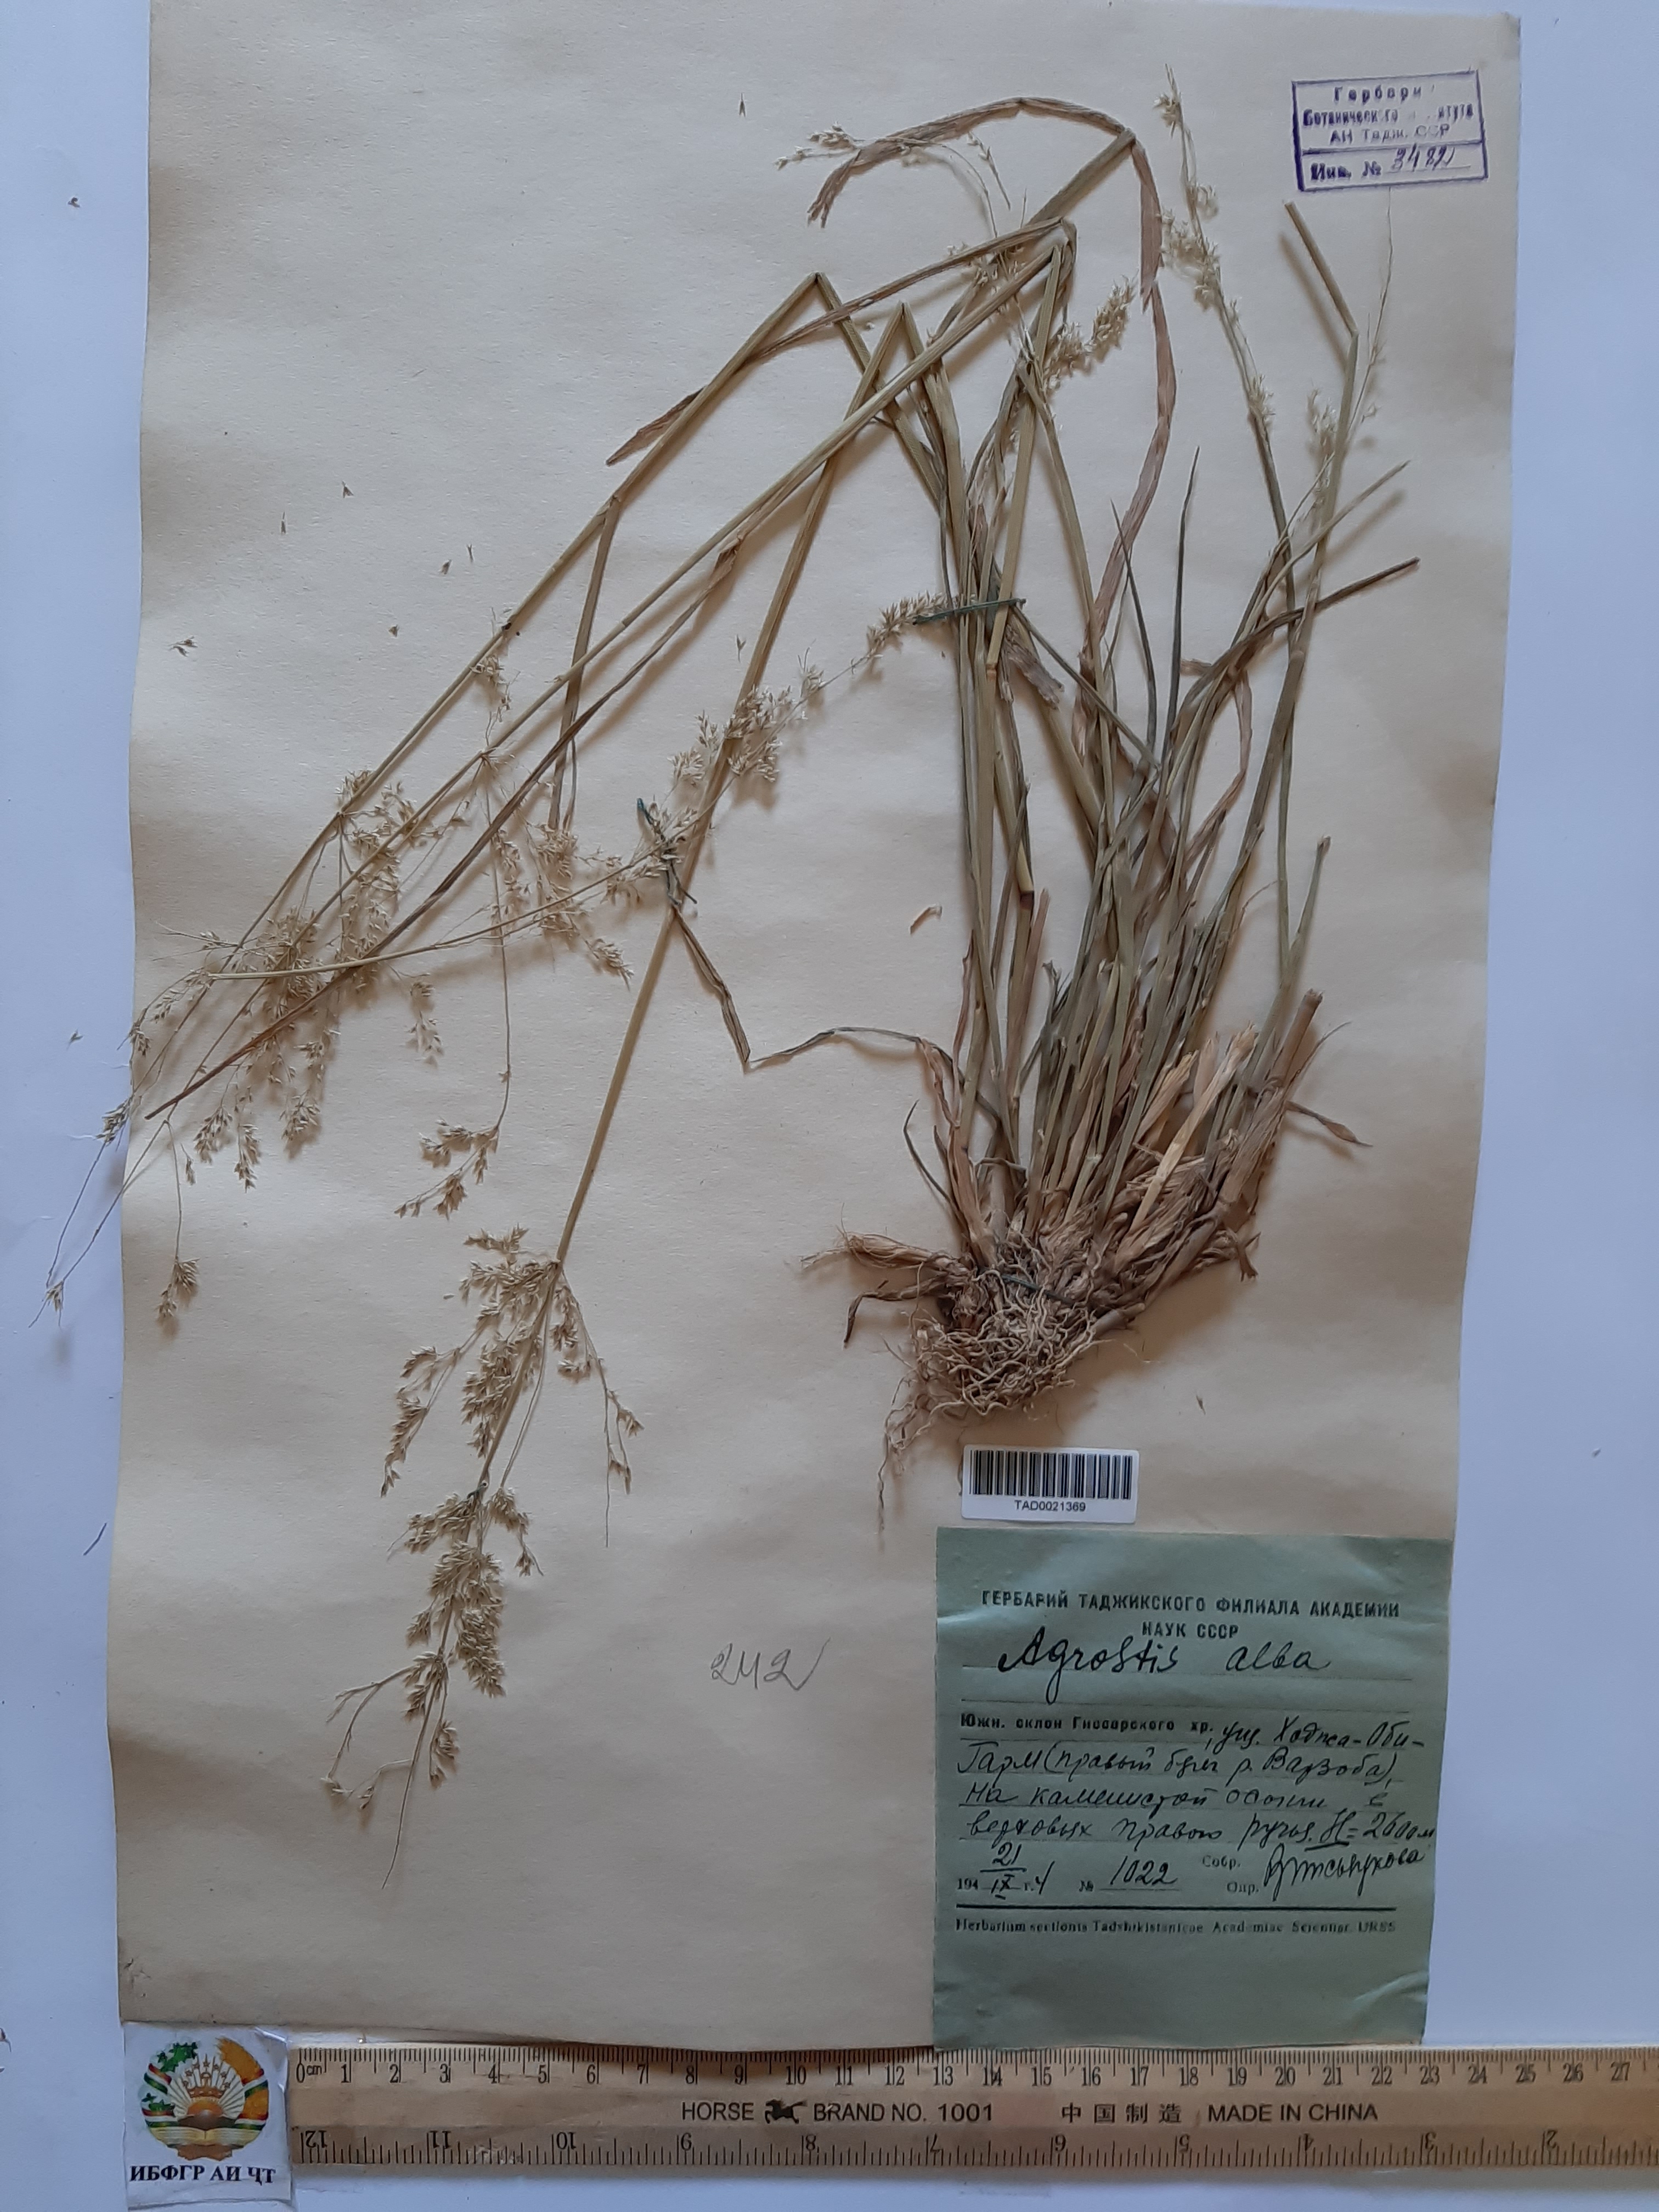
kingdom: Plantae
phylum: Tracheophyta
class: Liliopsida
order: Poales
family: Poaceae
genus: Poa
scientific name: Poa nemoralis
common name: Wood bluegrass
